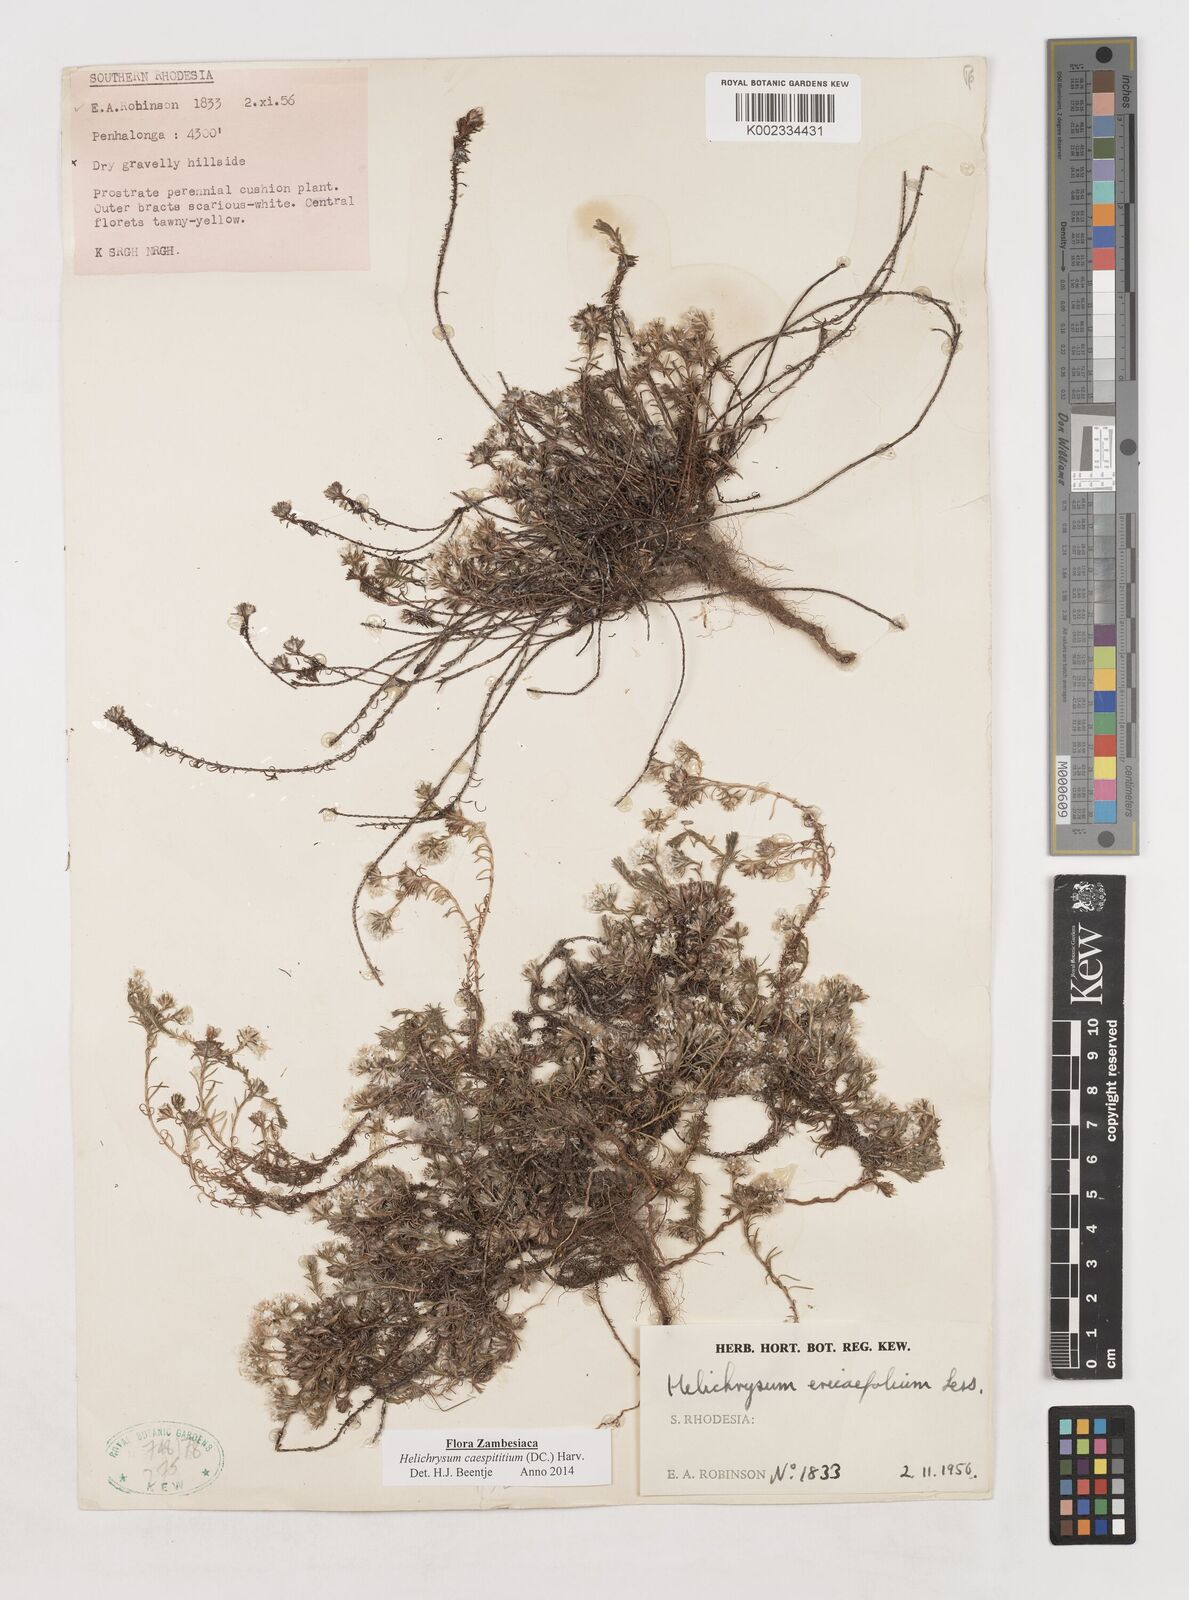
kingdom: Plantae
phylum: Tracheophyta
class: Magnoliopsida
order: Asterales
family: Asteraceae
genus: Helichrysum
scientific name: Helichrysum caespititium
